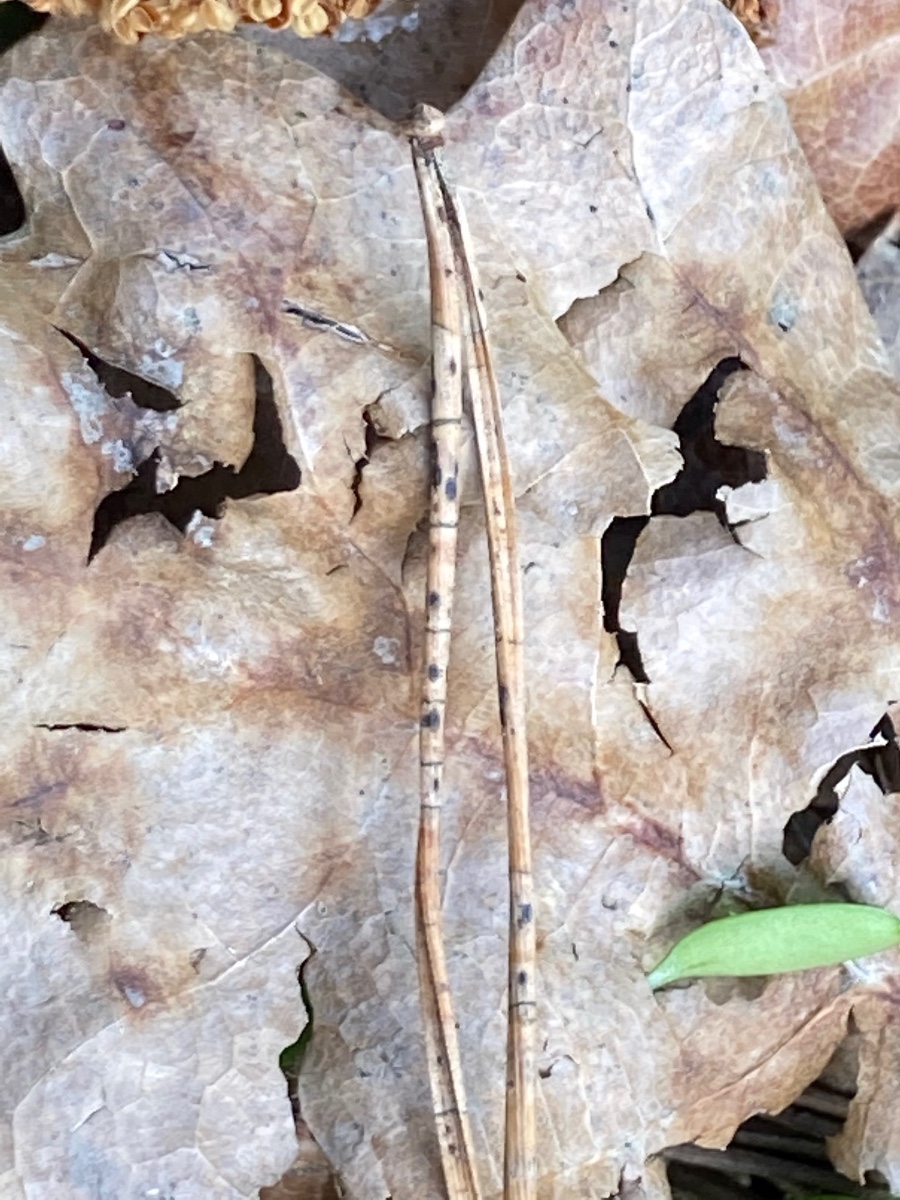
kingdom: Fungi
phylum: Ascomycota
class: Leotiomycetes
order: Rhytismatales
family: Rhytismataceae
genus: Lophodermium
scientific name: Lophodermium pinastri
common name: fyrre-fureplet
